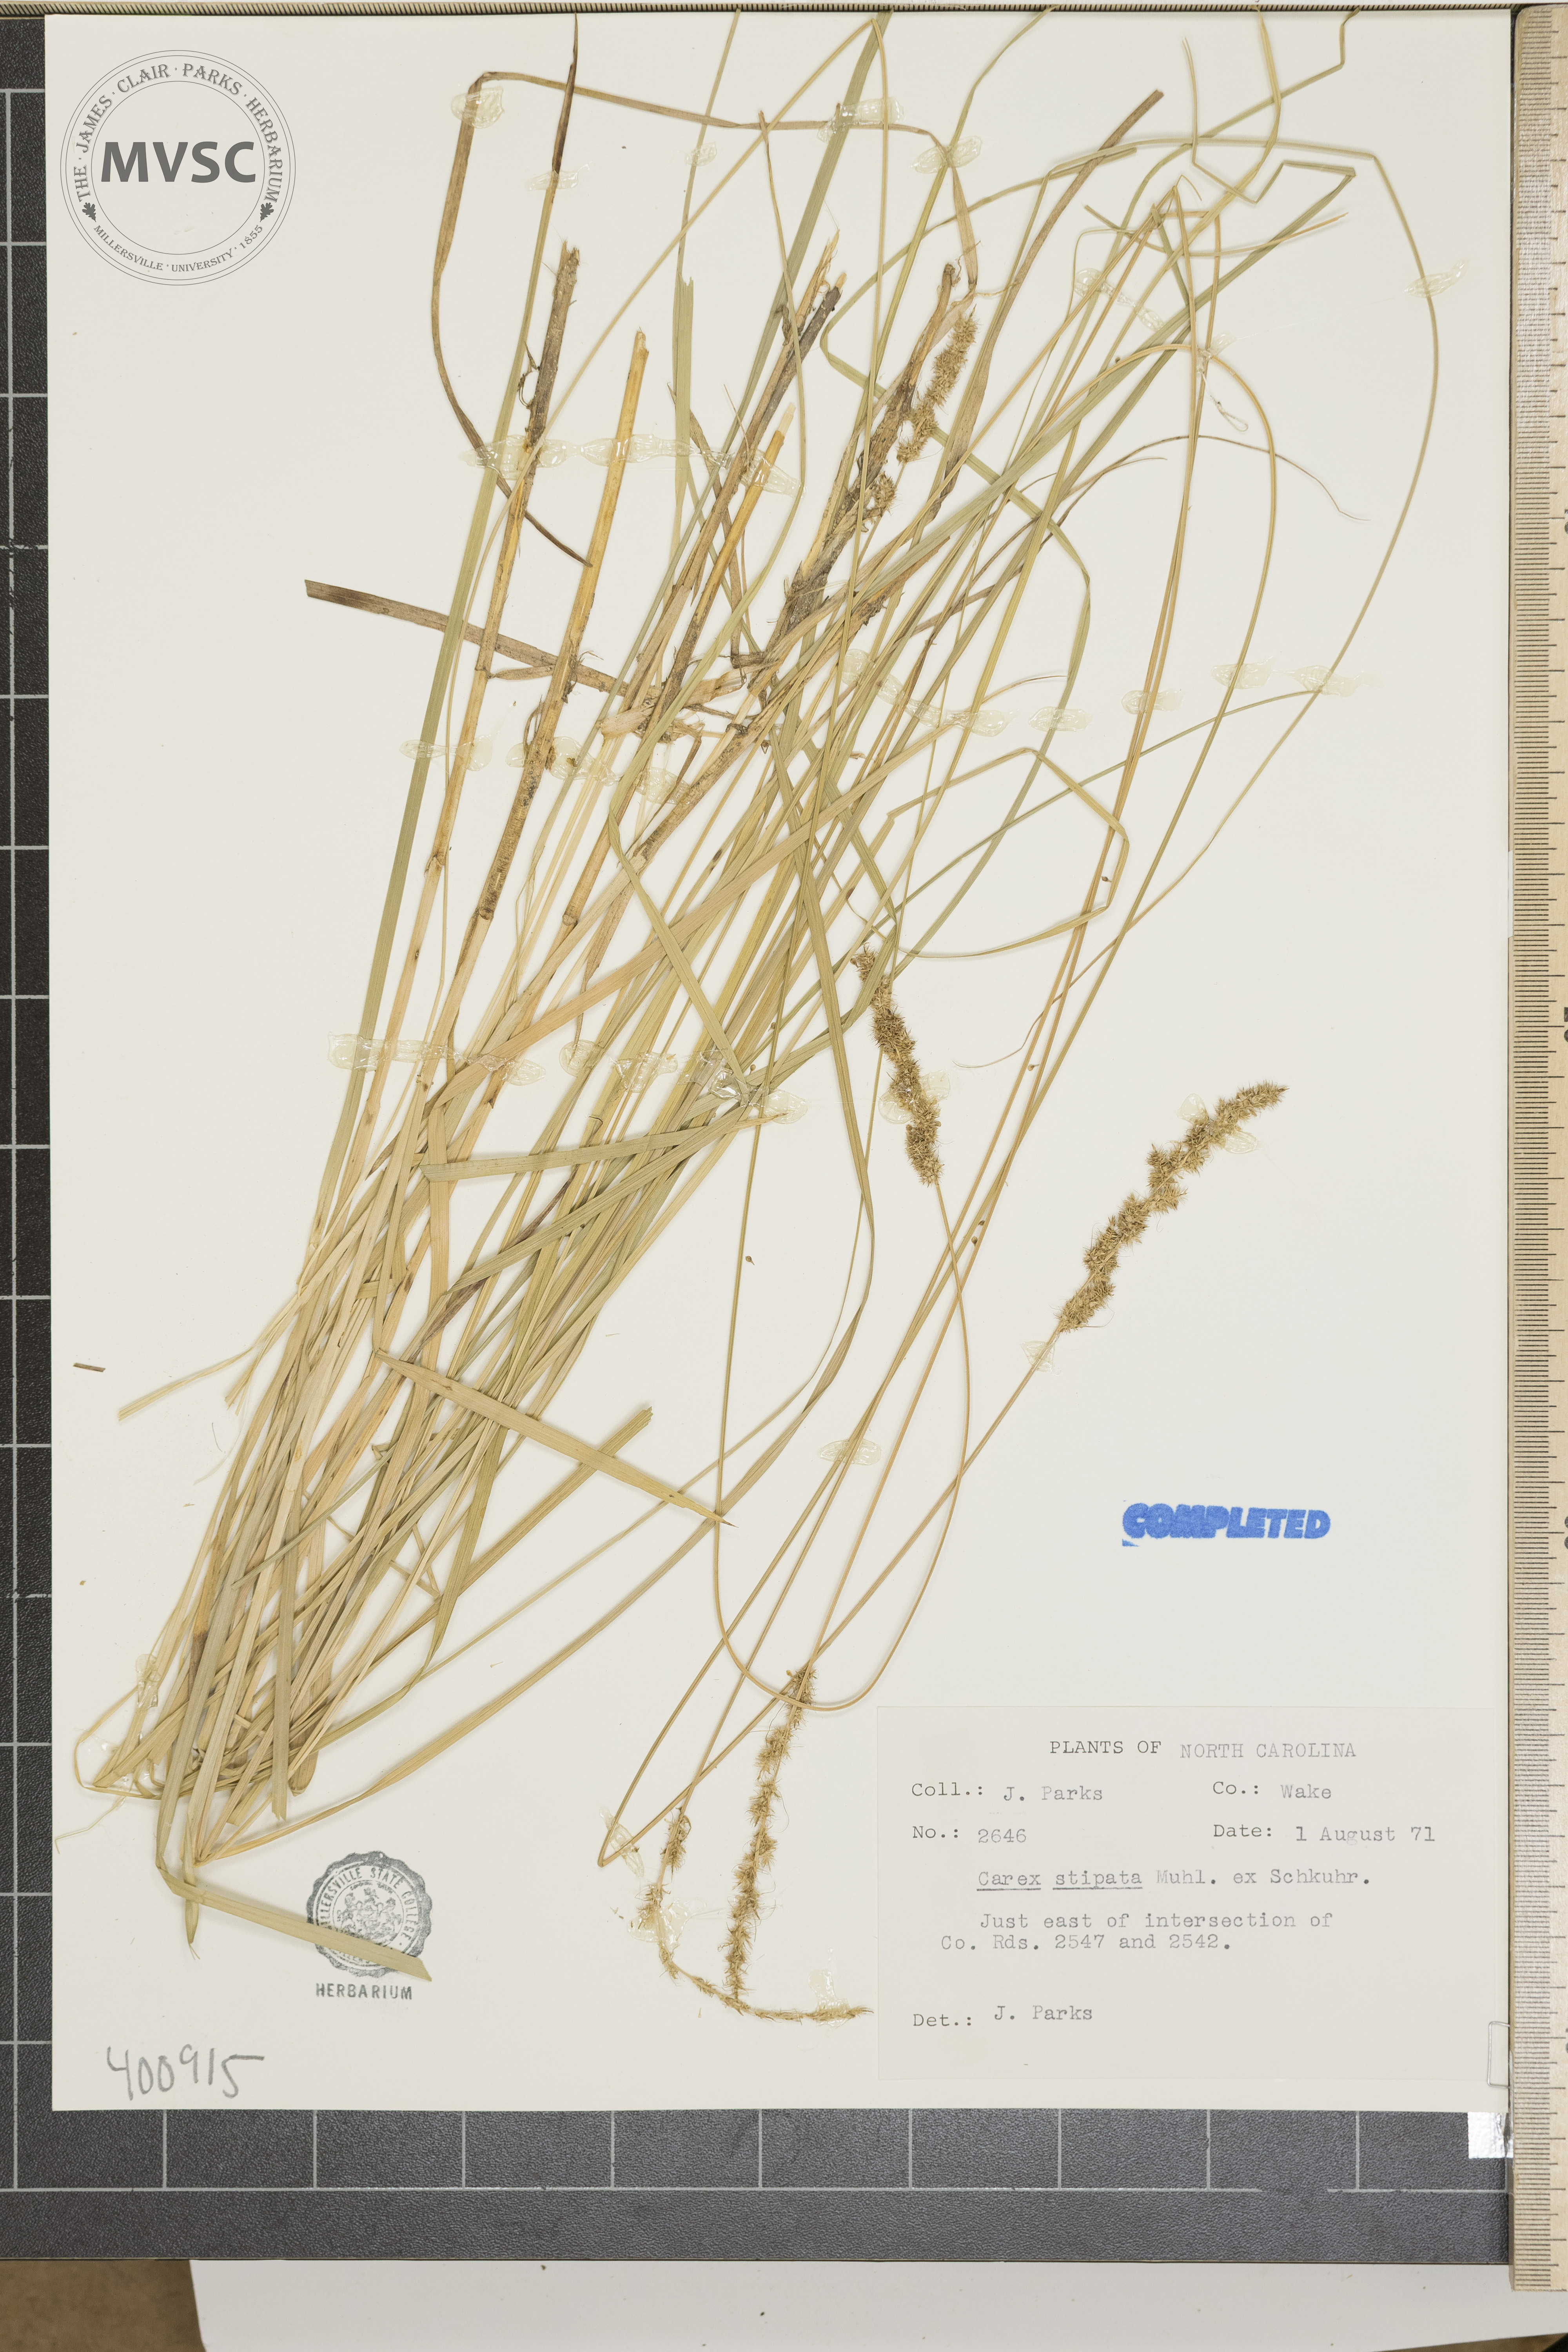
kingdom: Plantae
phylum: Tracheophyta
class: Liliopsida
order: Poales
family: Cyperaceae
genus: Carex
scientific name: Carex stipata
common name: sedge
